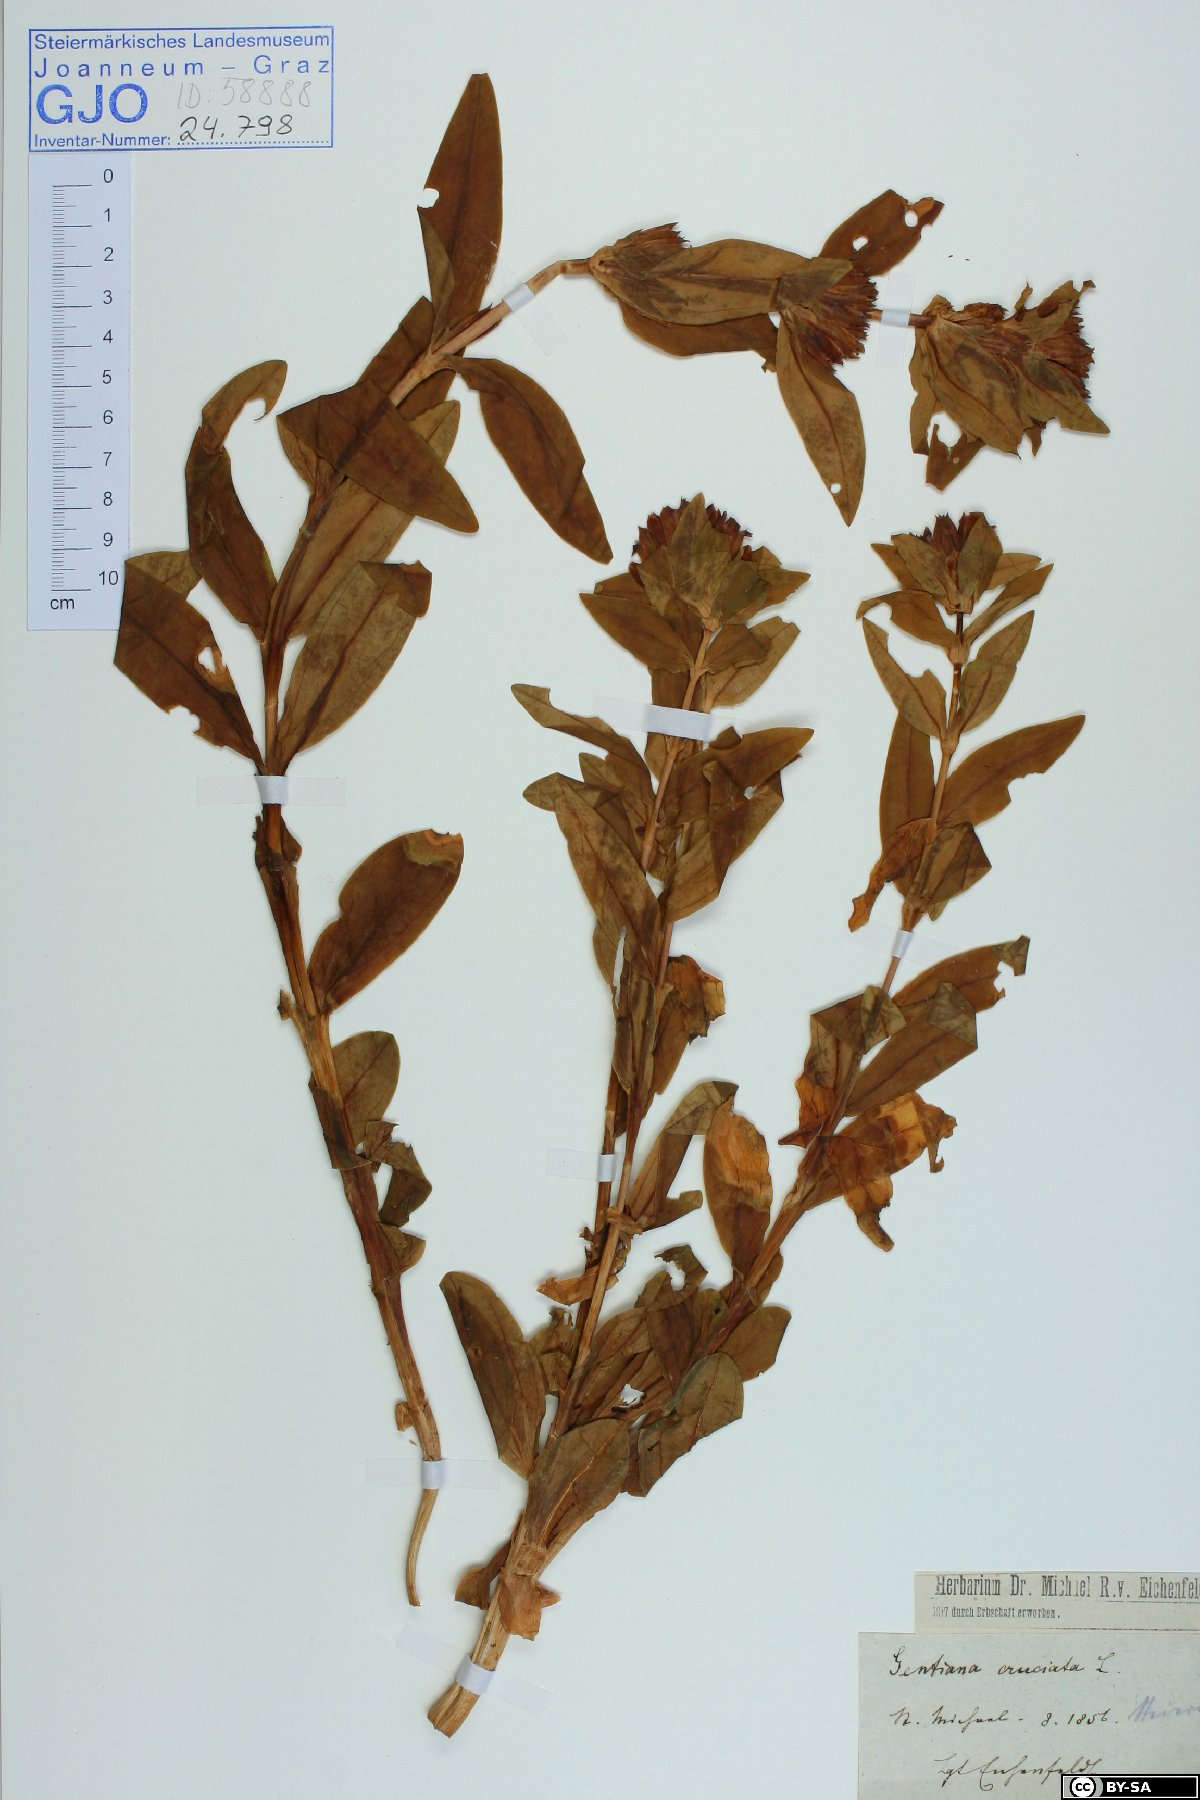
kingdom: Plantae
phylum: Tracheophyta
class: Magnoliopsida
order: Gentianales
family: Gentianaceae
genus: Gentiana
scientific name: Gentiana cruciata
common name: Cross gentian
